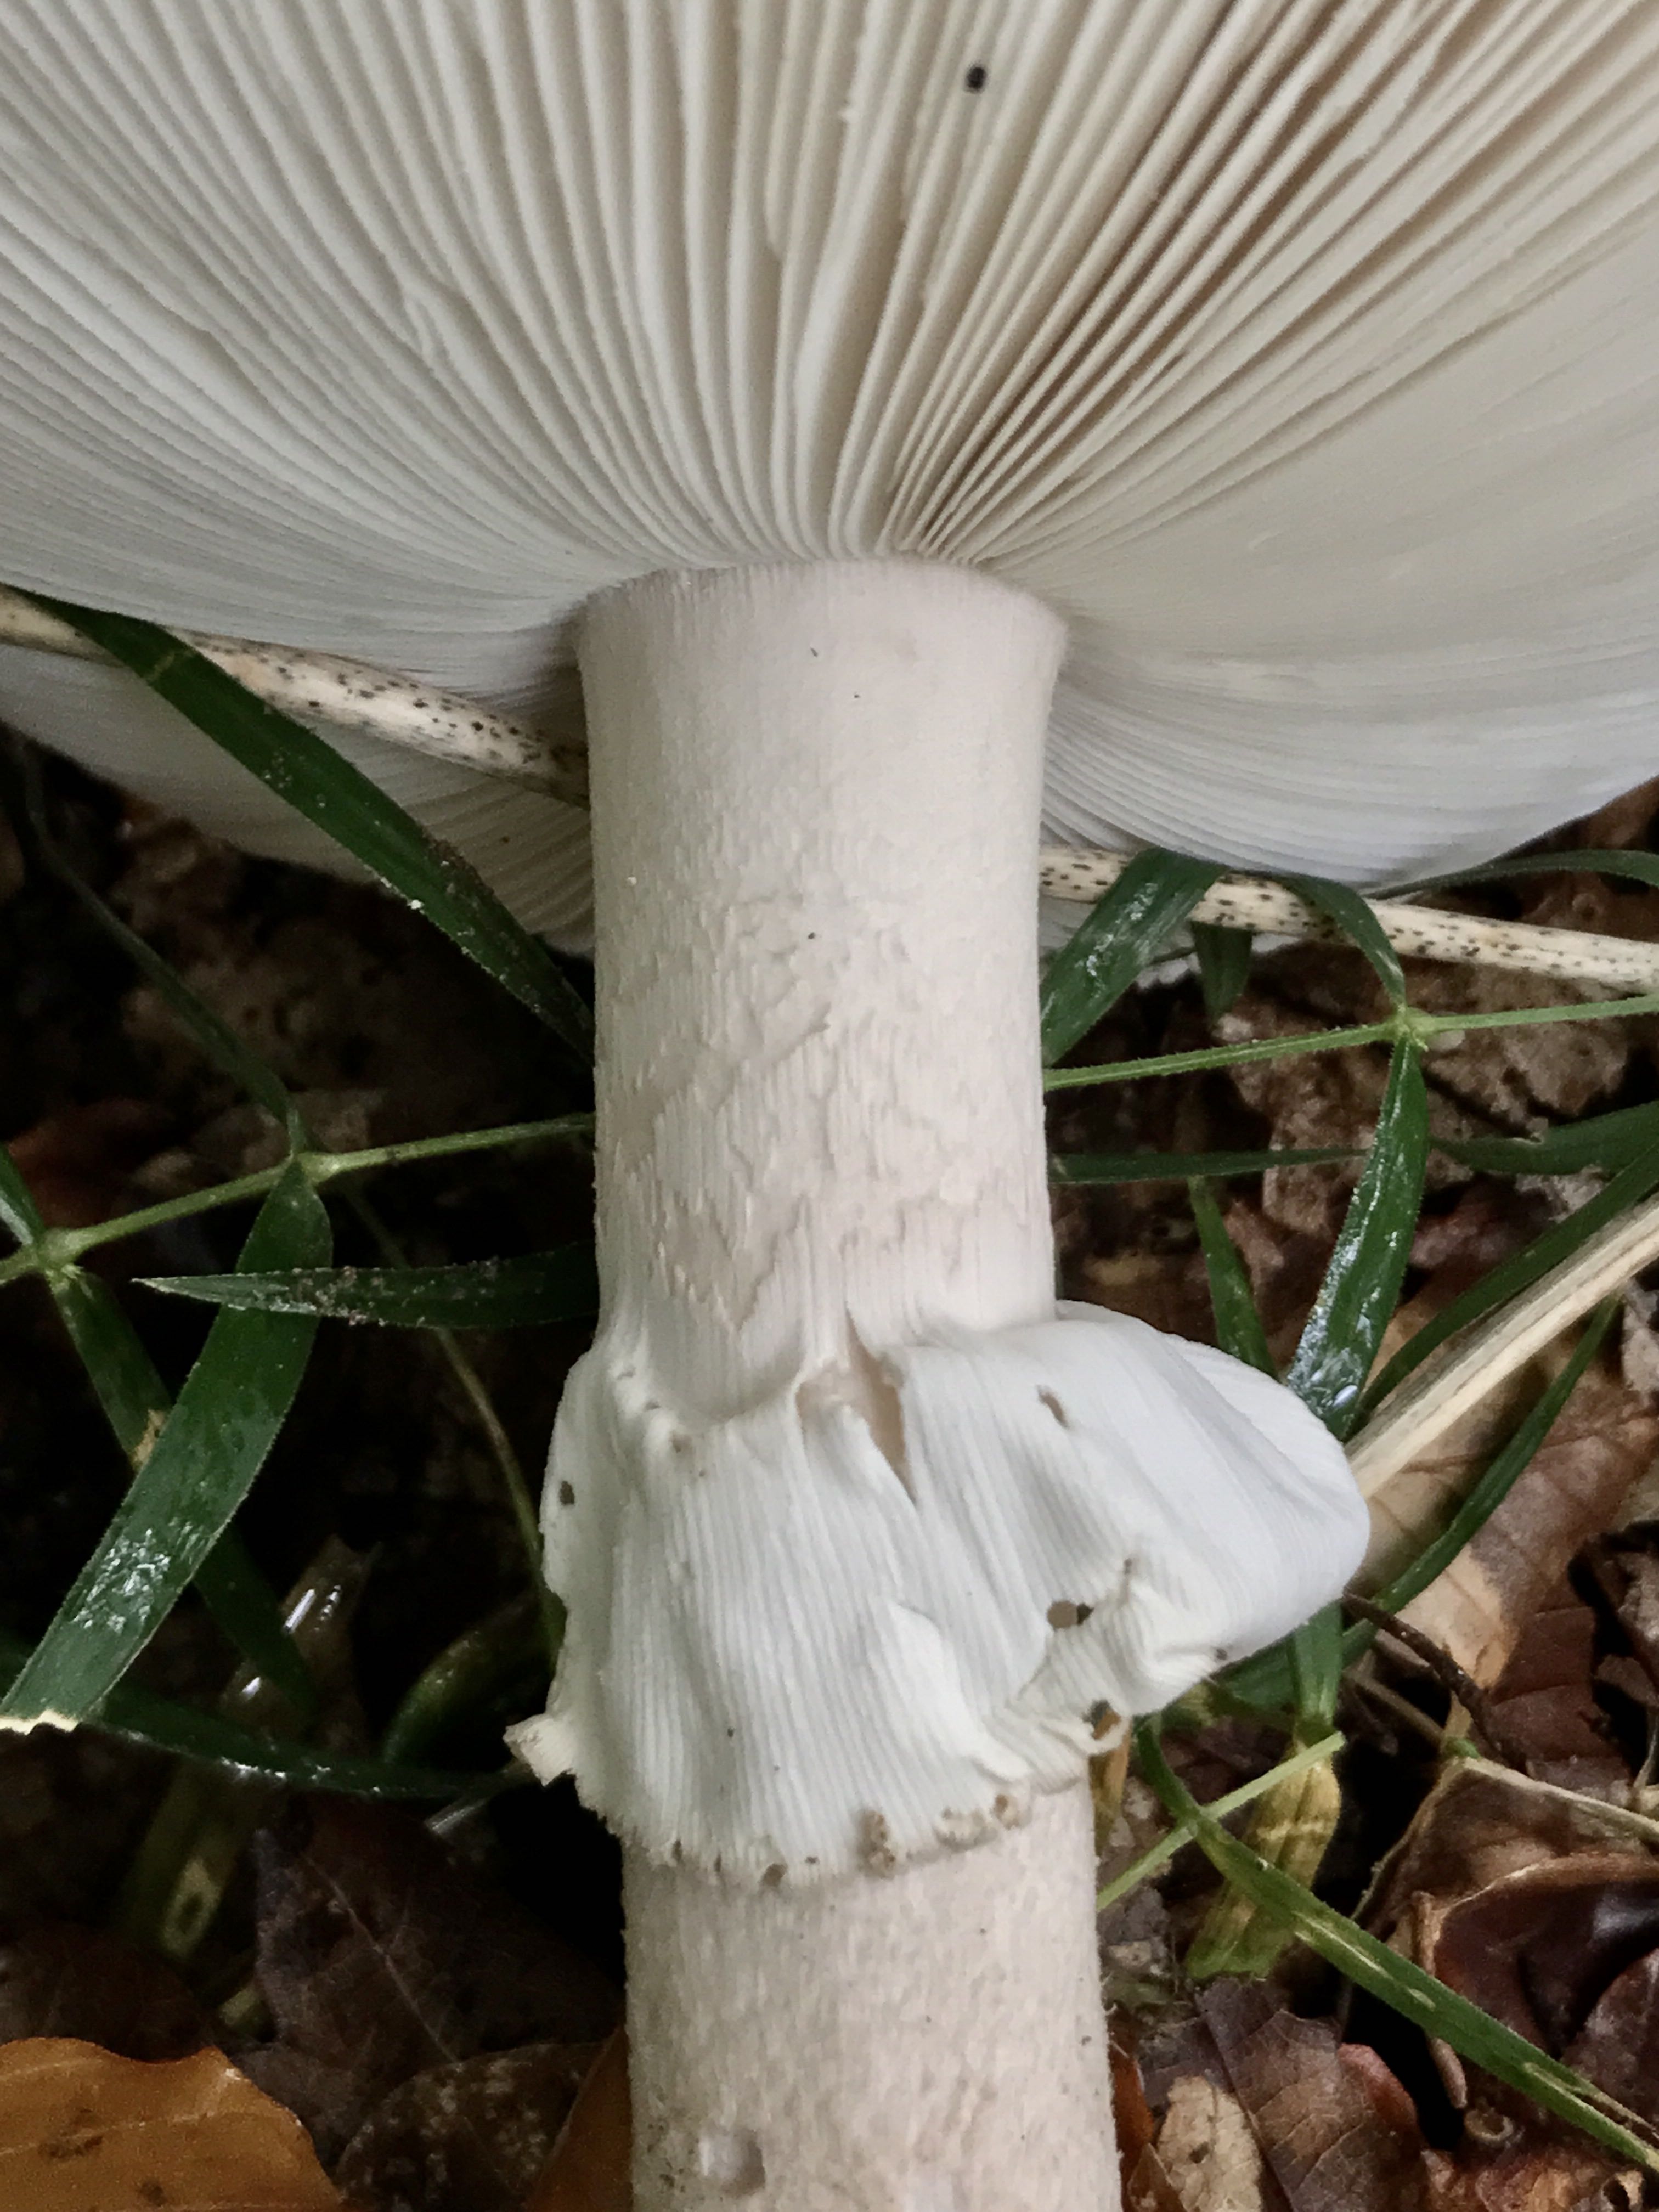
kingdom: Fungi
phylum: Basidiomycota
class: Agaricomycetes
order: Agaricales
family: Amanitaceae
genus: Amanita
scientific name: Amanita
